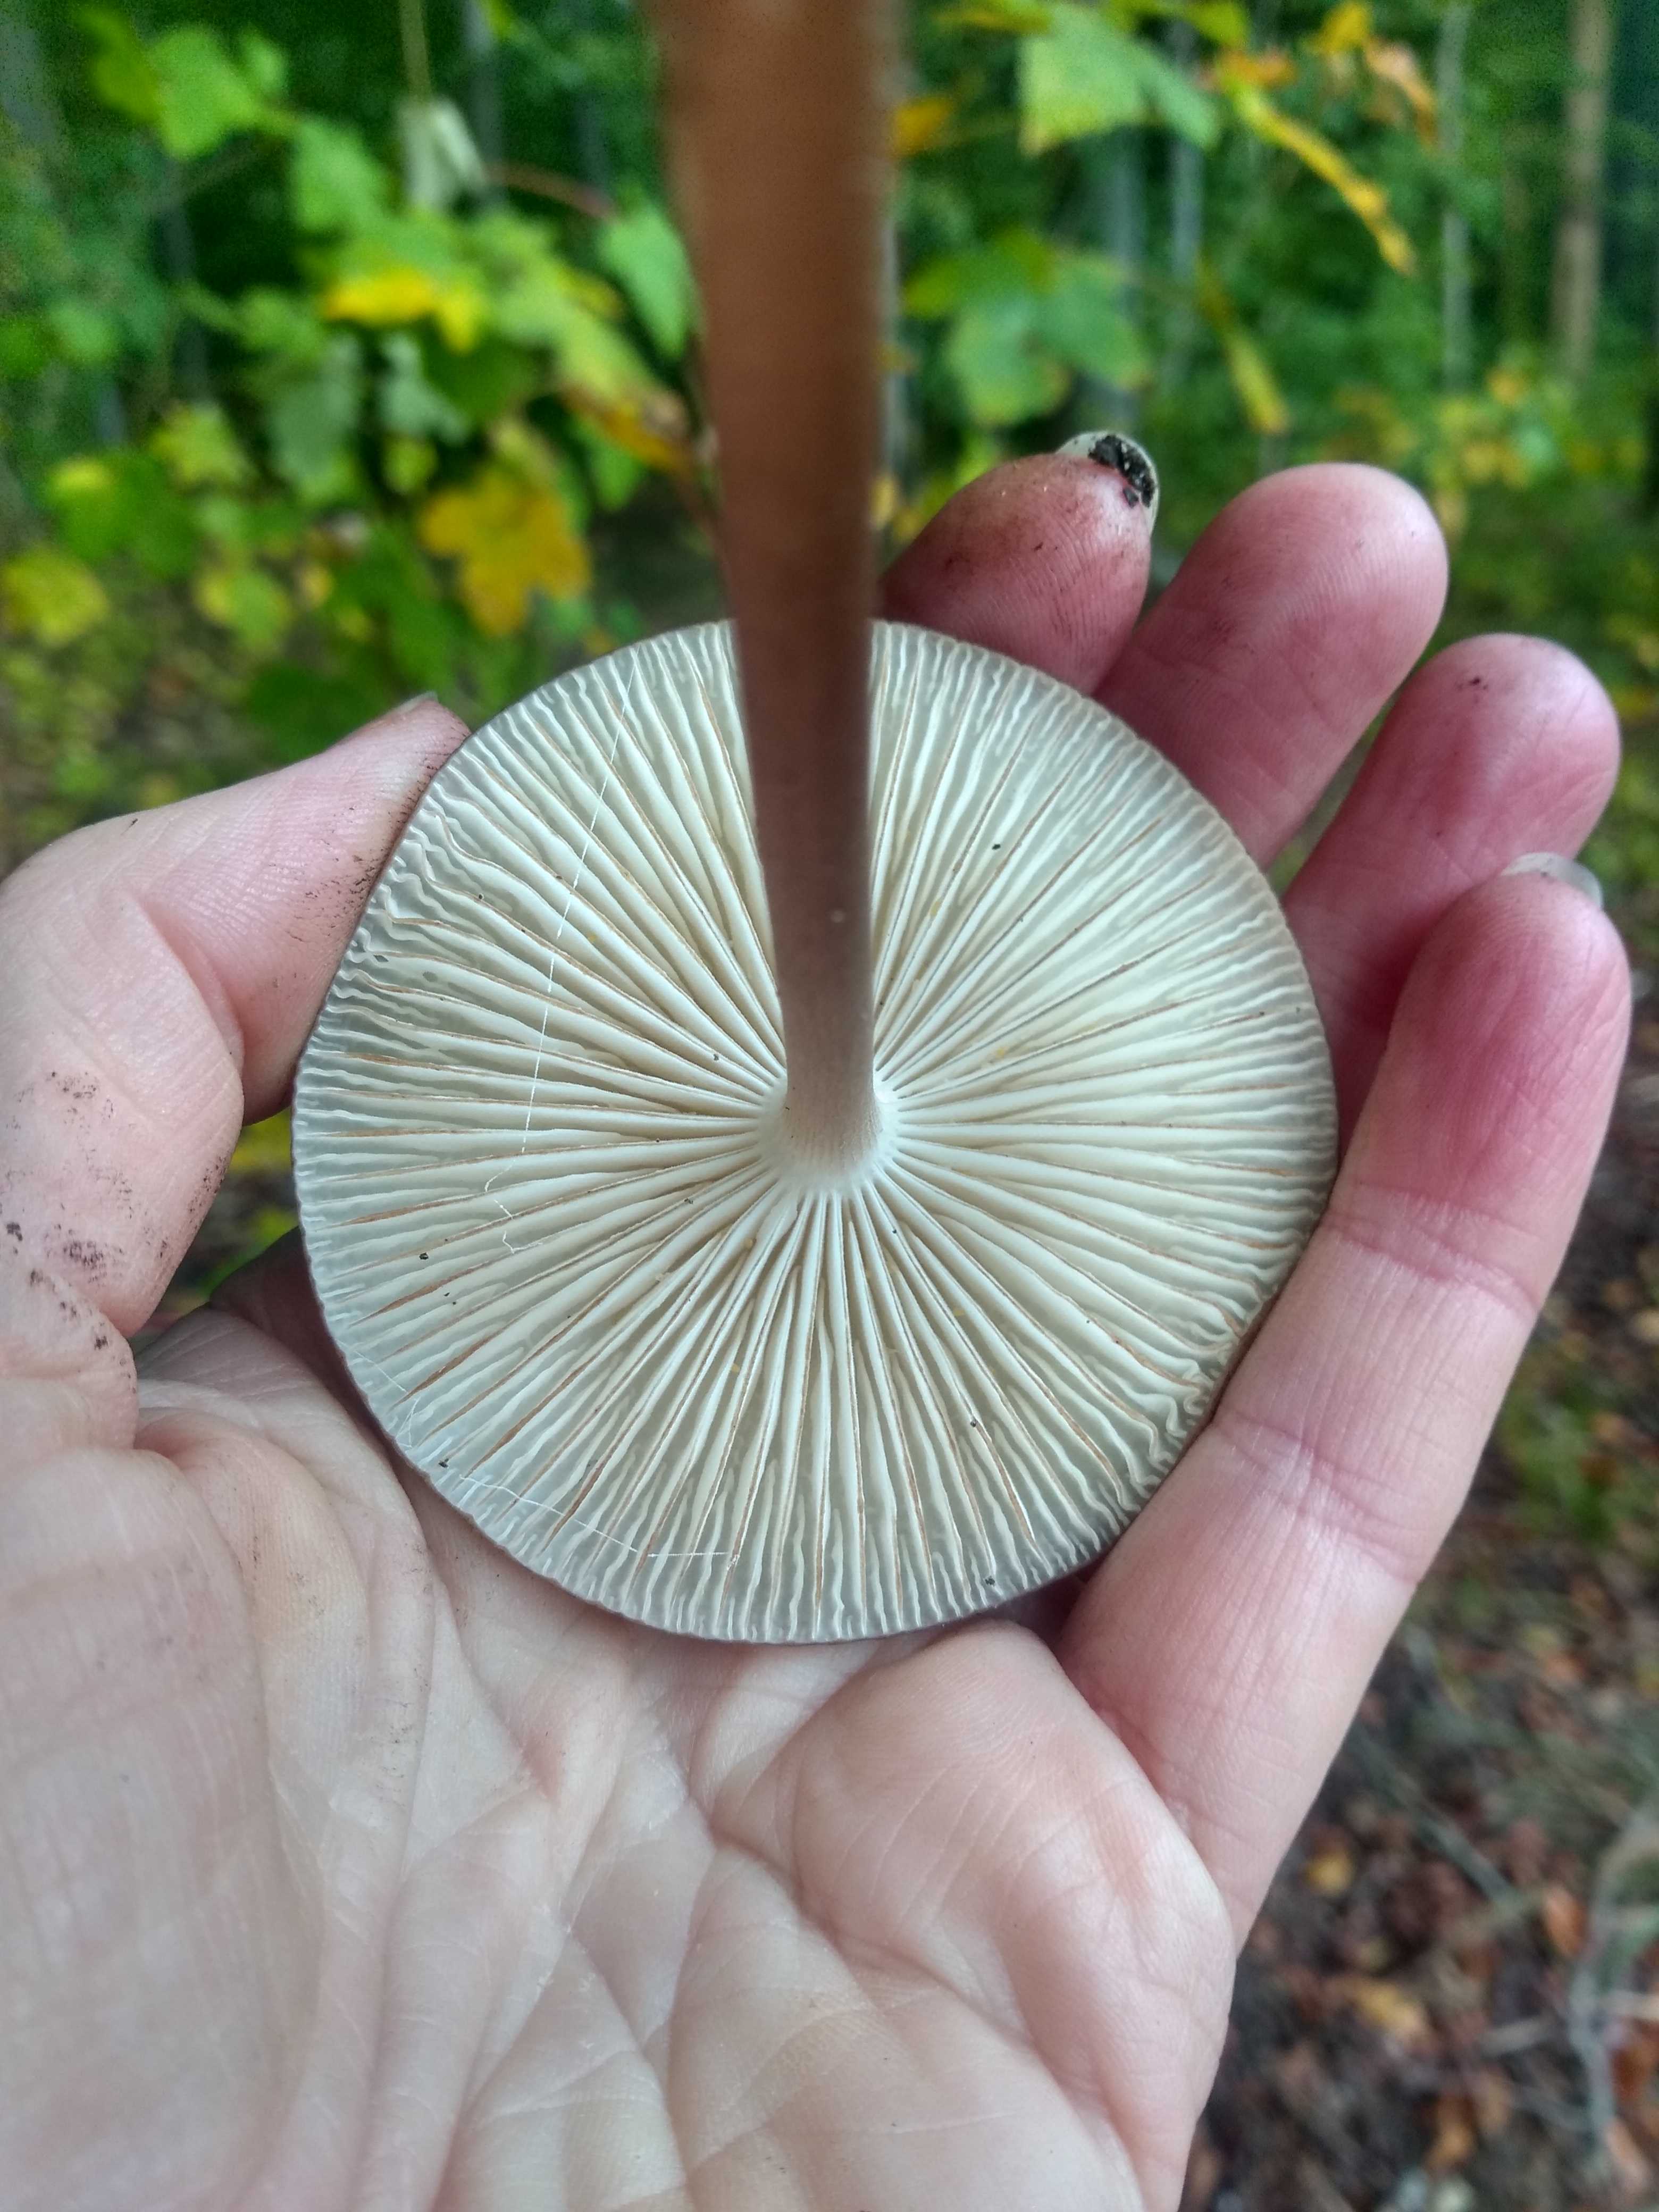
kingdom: Fungi
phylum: Basidiomycota
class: Agaricomycetes
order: Agaricales
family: Physalacriaceae
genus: Hymenopellis
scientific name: Hymenopellis radicata
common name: almindelig pælerodshat
